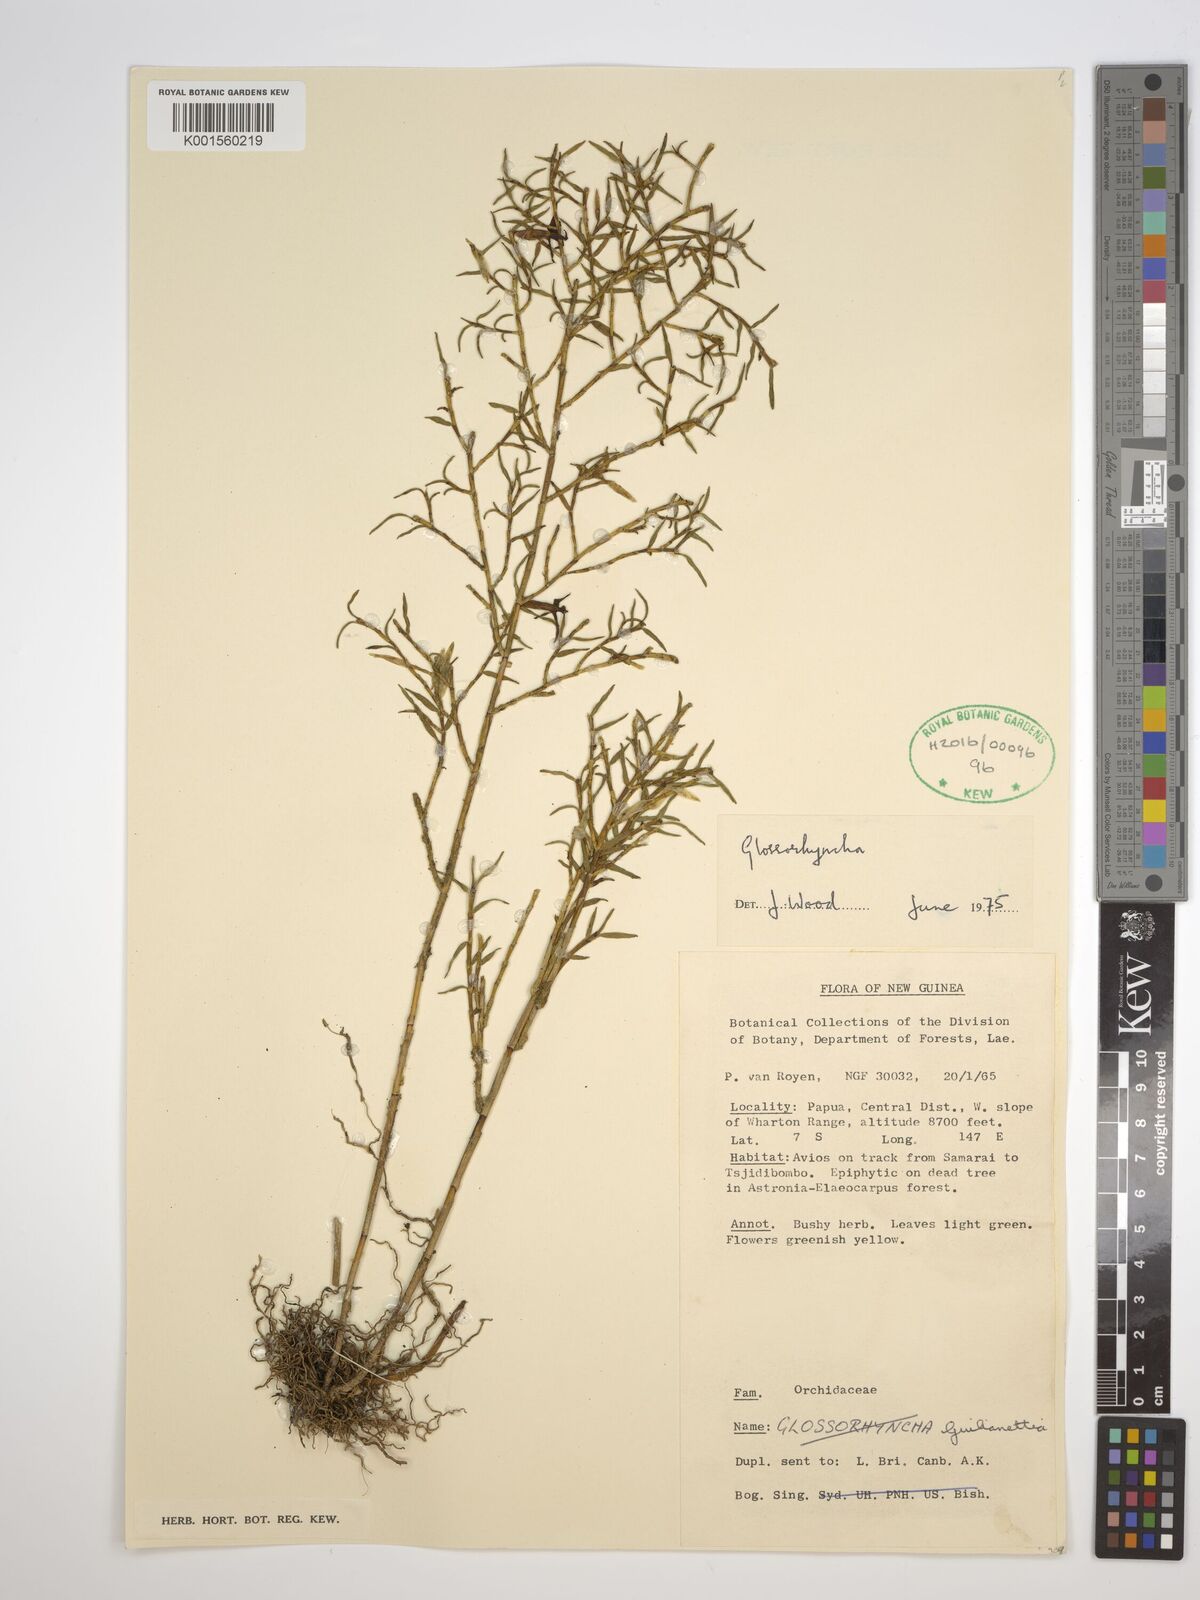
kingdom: Plantae
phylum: Tracheophyta
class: Liliopsida
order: Asparagales
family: Orchidaceae
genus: Glomera
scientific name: Glomera
